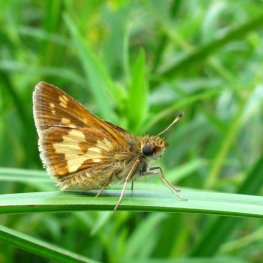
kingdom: Animalia
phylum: Arthropoda
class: Insecta
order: Lepidoptera
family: Hesperiidae
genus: Polites
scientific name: Polites coras
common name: Peck's Skipper
